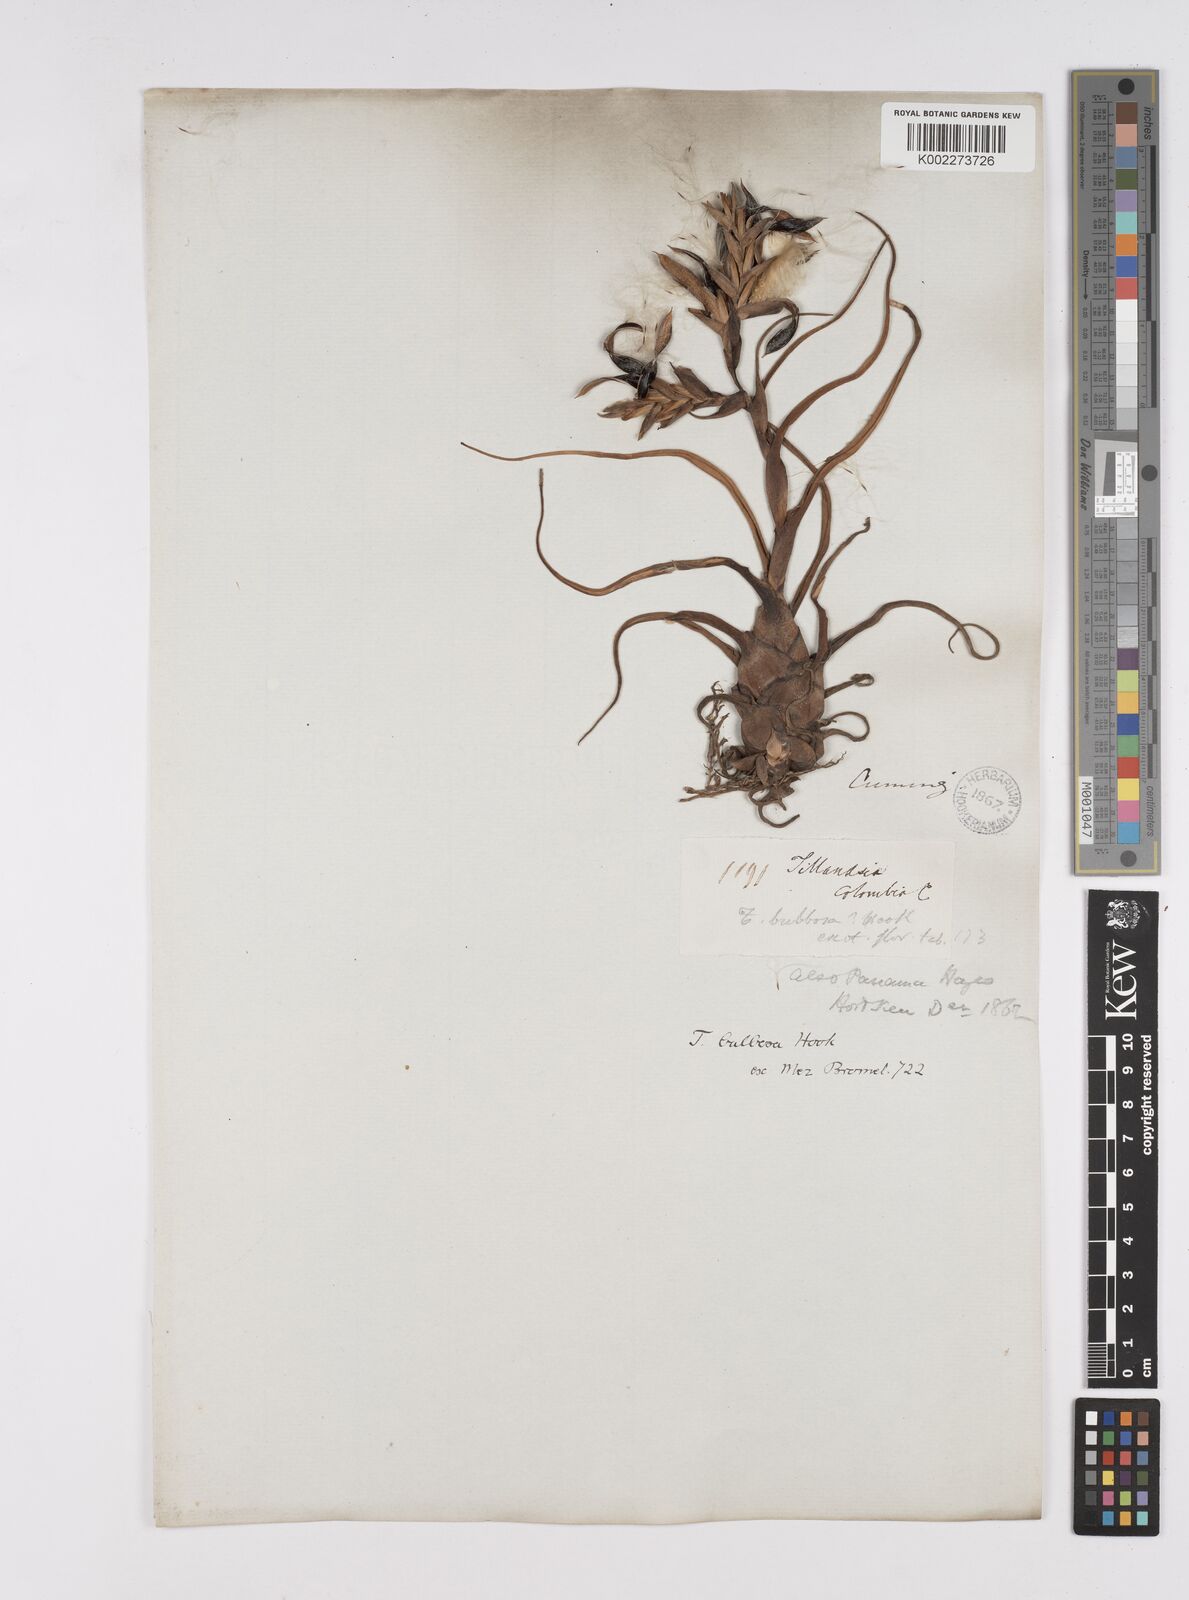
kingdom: Plantae
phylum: Tracheophyta
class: Liliopsida
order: Poales
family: Bromeliaceae
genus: Tillandsia
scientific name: Tillandsia bulbosa
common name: Bulbous airplant
